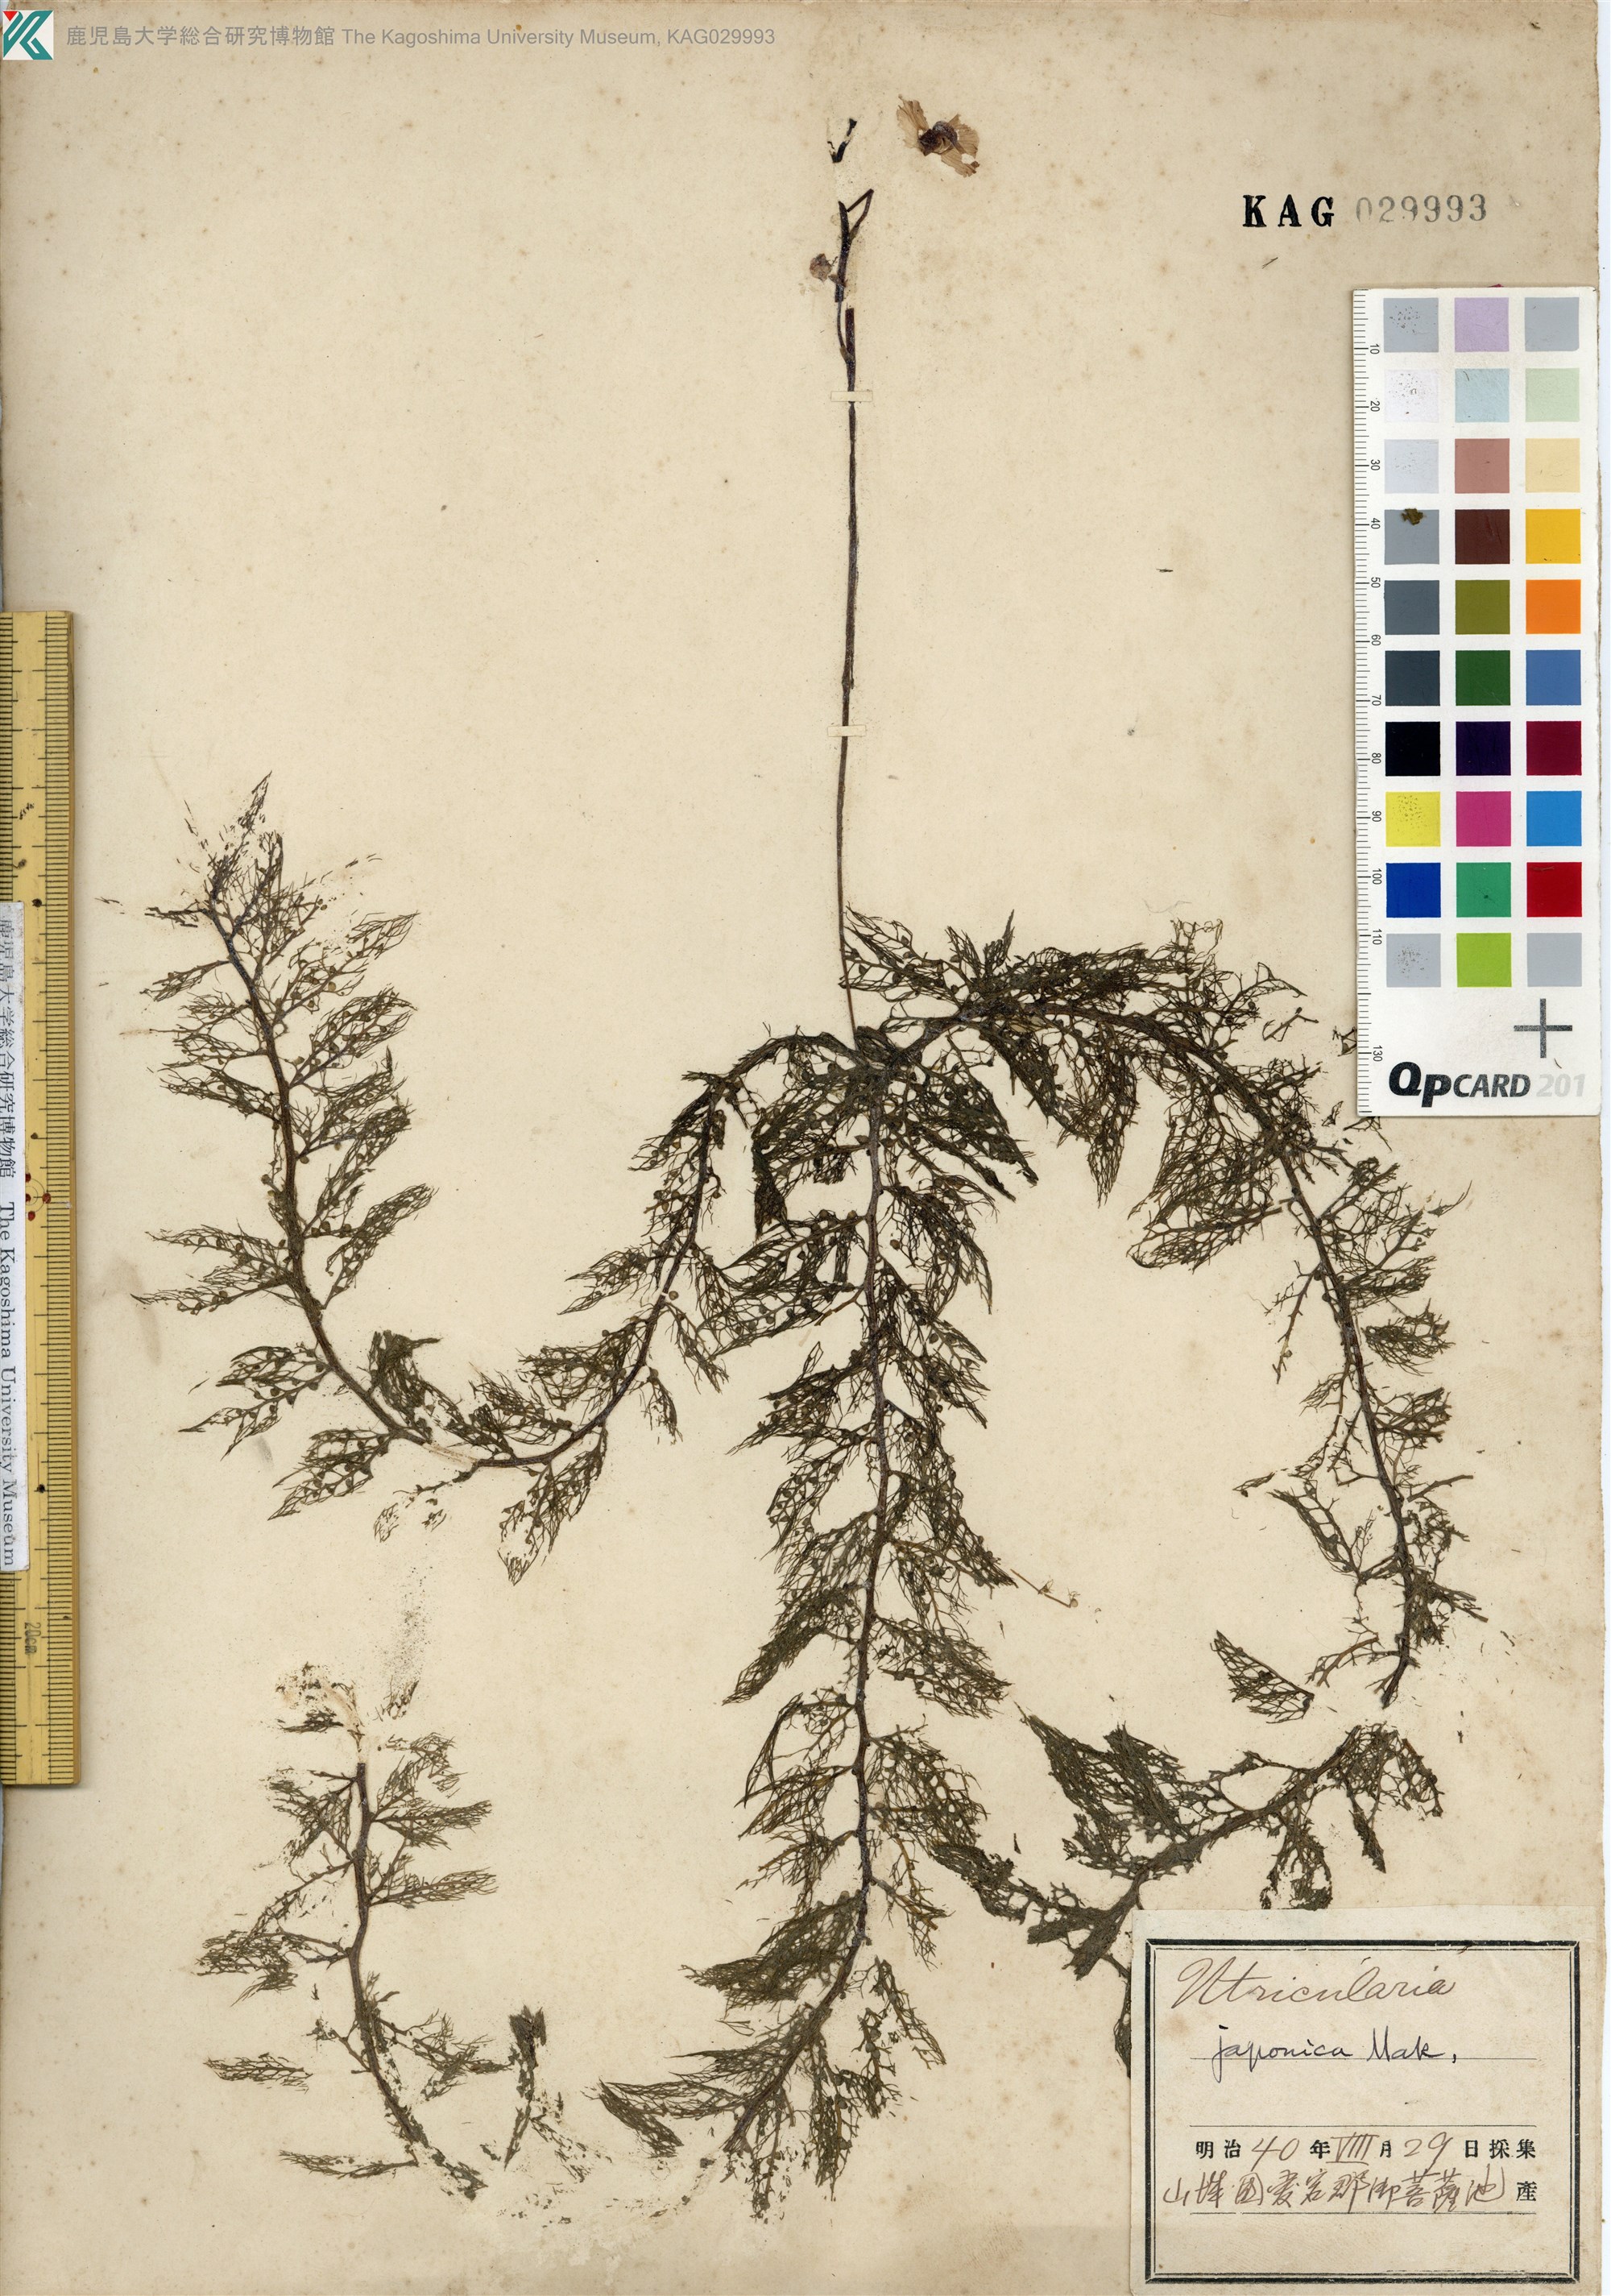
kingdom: Plantae
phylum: Tracheophyta
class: Magnoliopsida
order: Lamiales
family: Lentibulariaceae
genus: Utricularia
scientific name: Utricularia japonica
